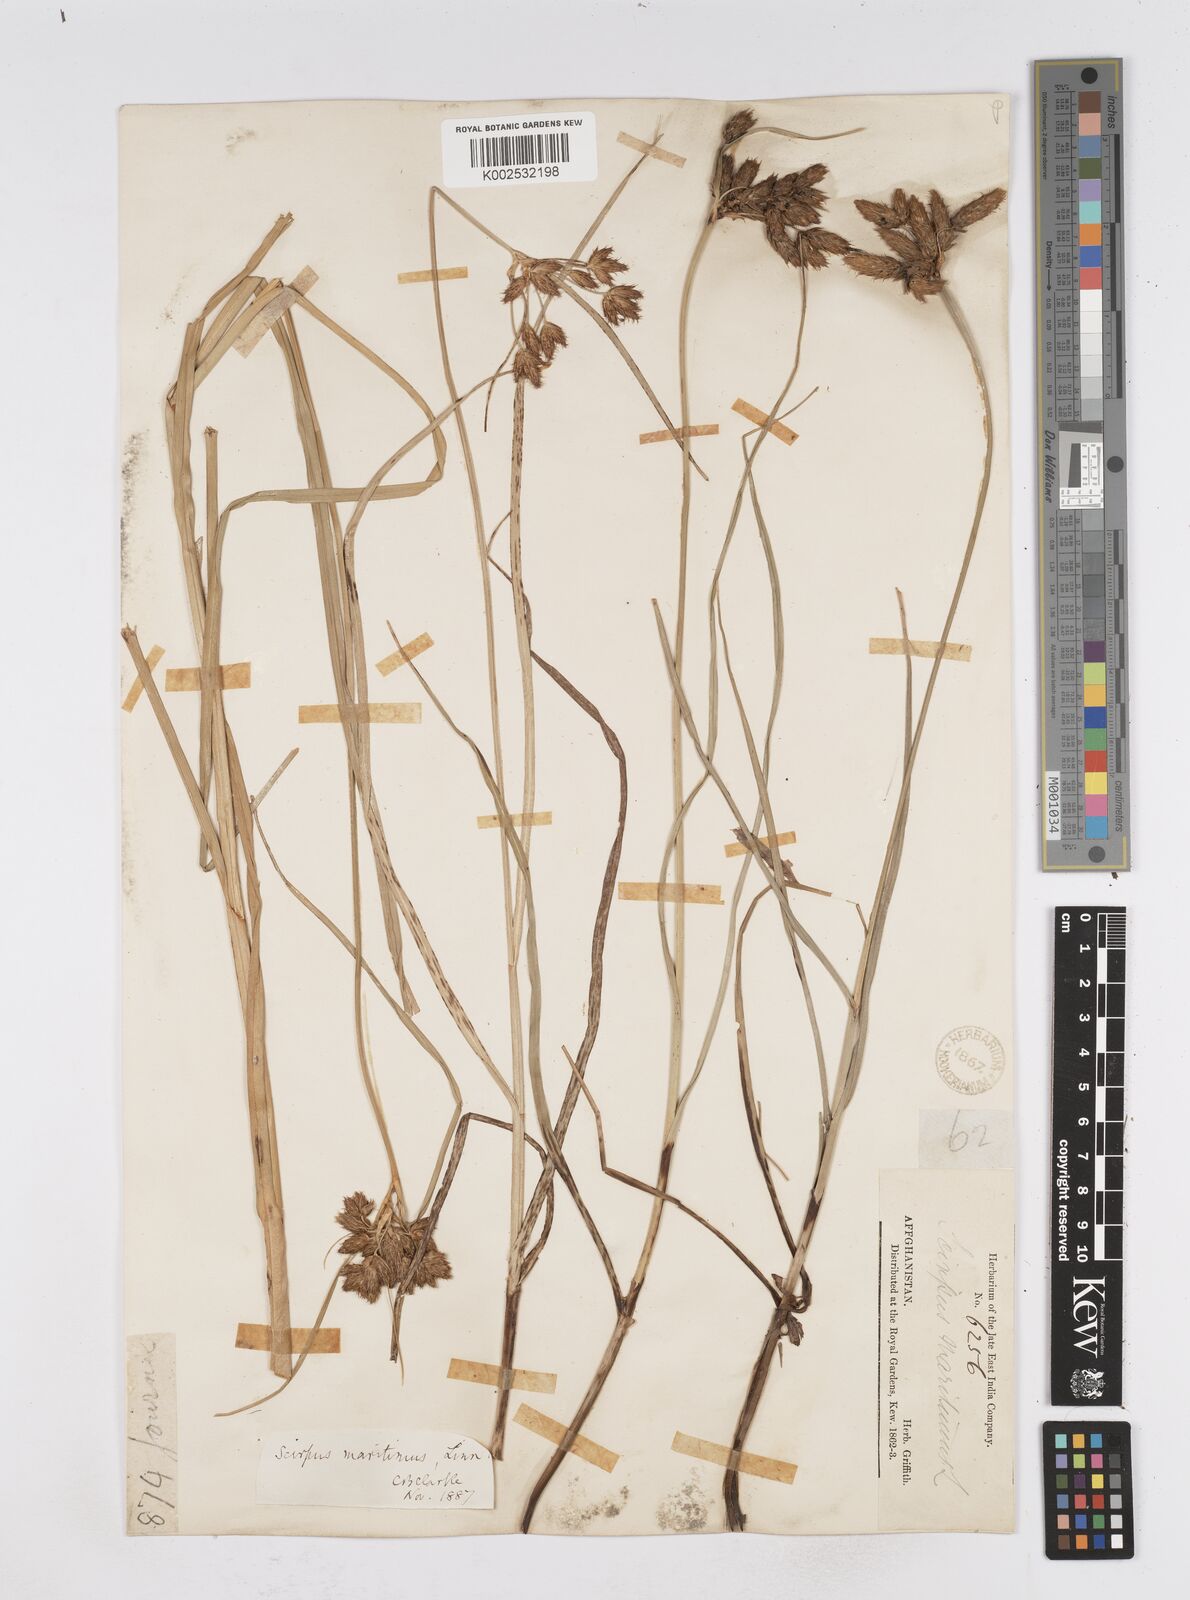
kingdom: Plantae
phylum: Tracheophyta
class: Liliopsida
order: Poales
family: Cyperaceae
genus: Bolboschoenus
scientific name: Bolboschoenus maritimus
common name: Sea club-rush
